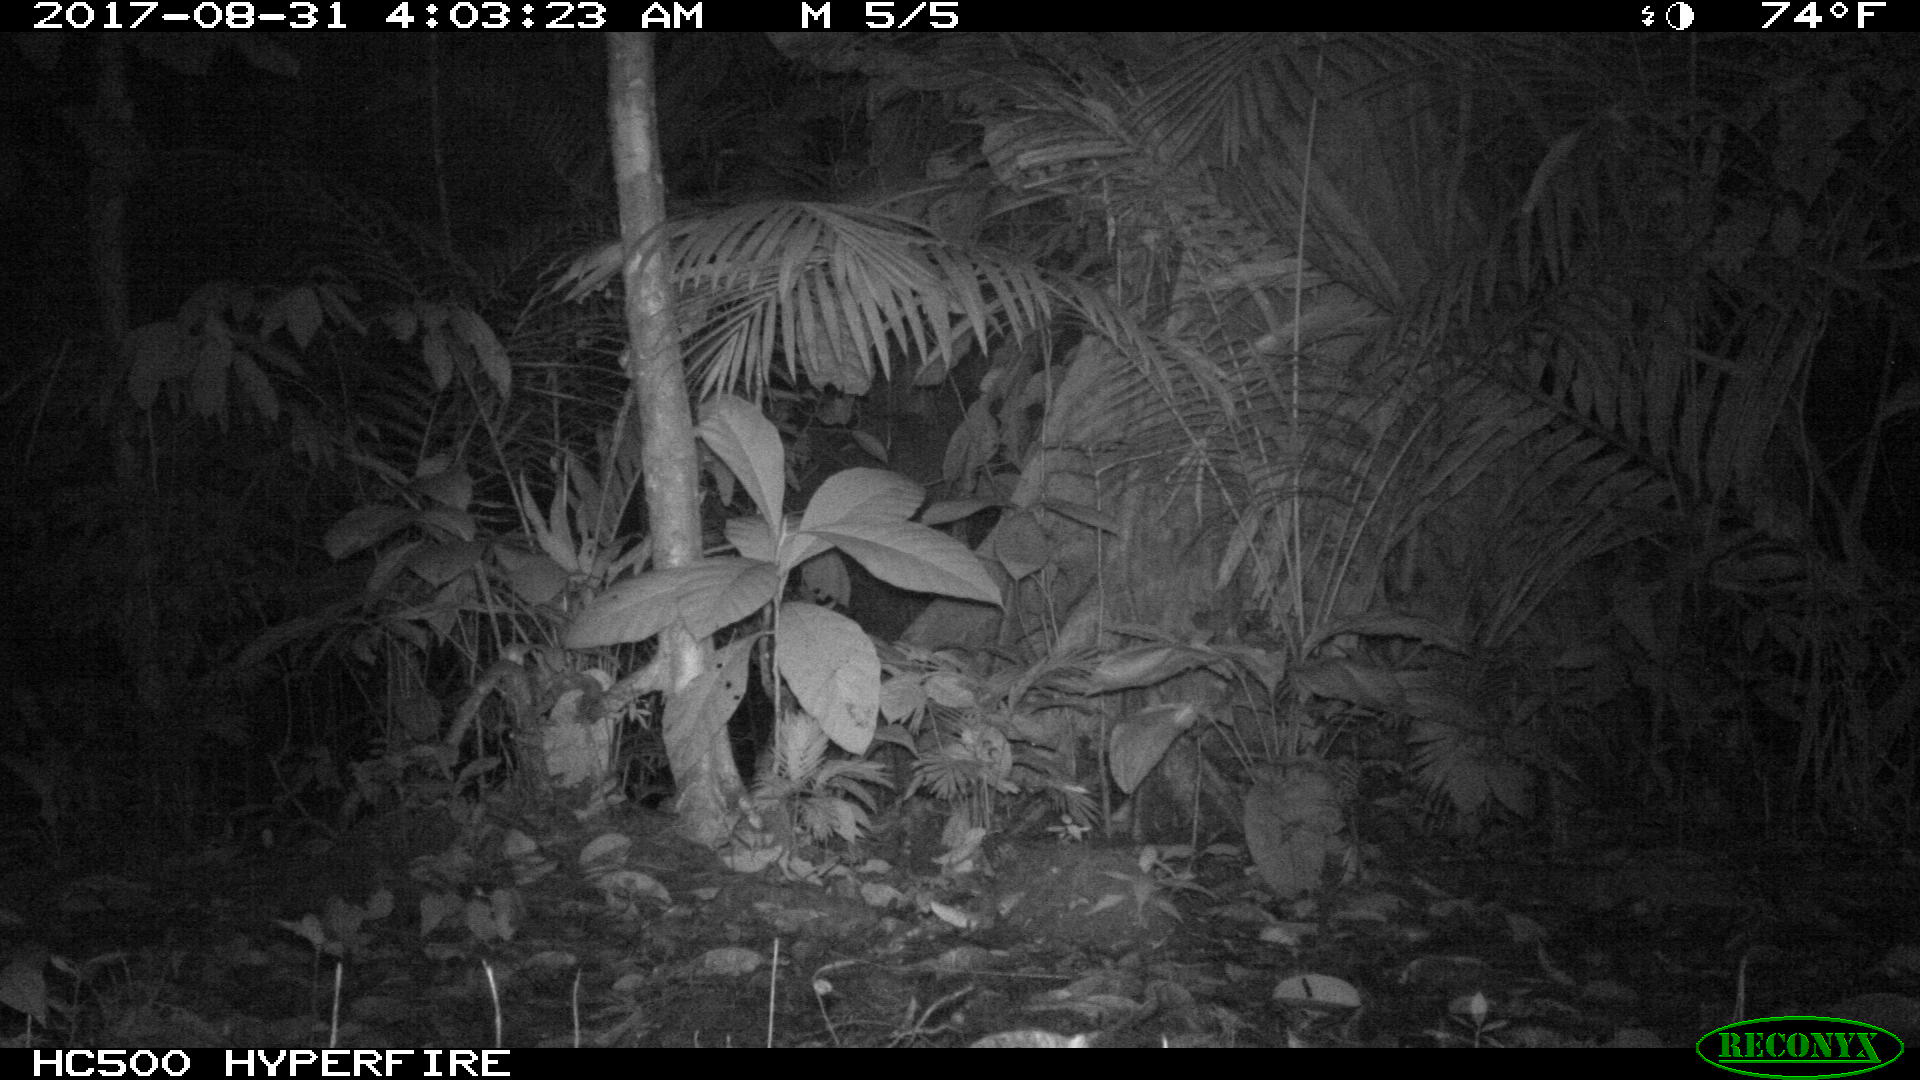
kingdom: Animalia
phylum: Chordata
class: Mammalia
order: Carnivora
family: Felidae
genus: Leopardus
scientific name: Leopardus pardalis
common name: Ocelot
